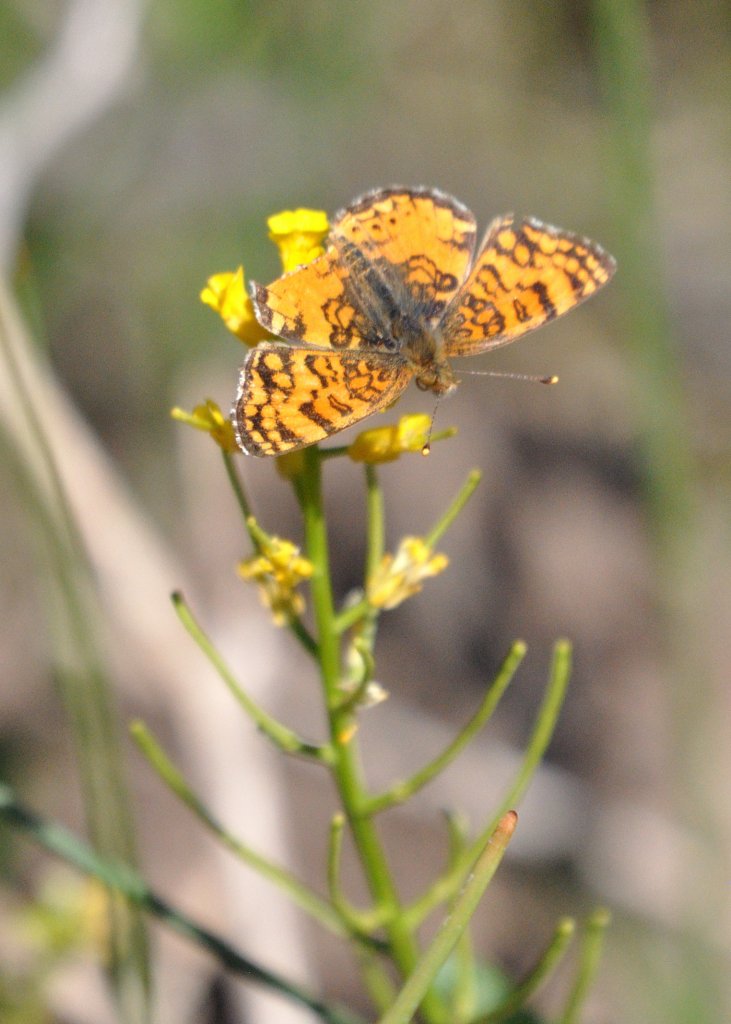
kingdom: Animalia
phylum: Arthropoda
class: Insecta
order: Lepidoptera
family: Nymphalidae
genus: Eresia
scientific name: Eresia aveyrona
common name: Mylitta Crescent
